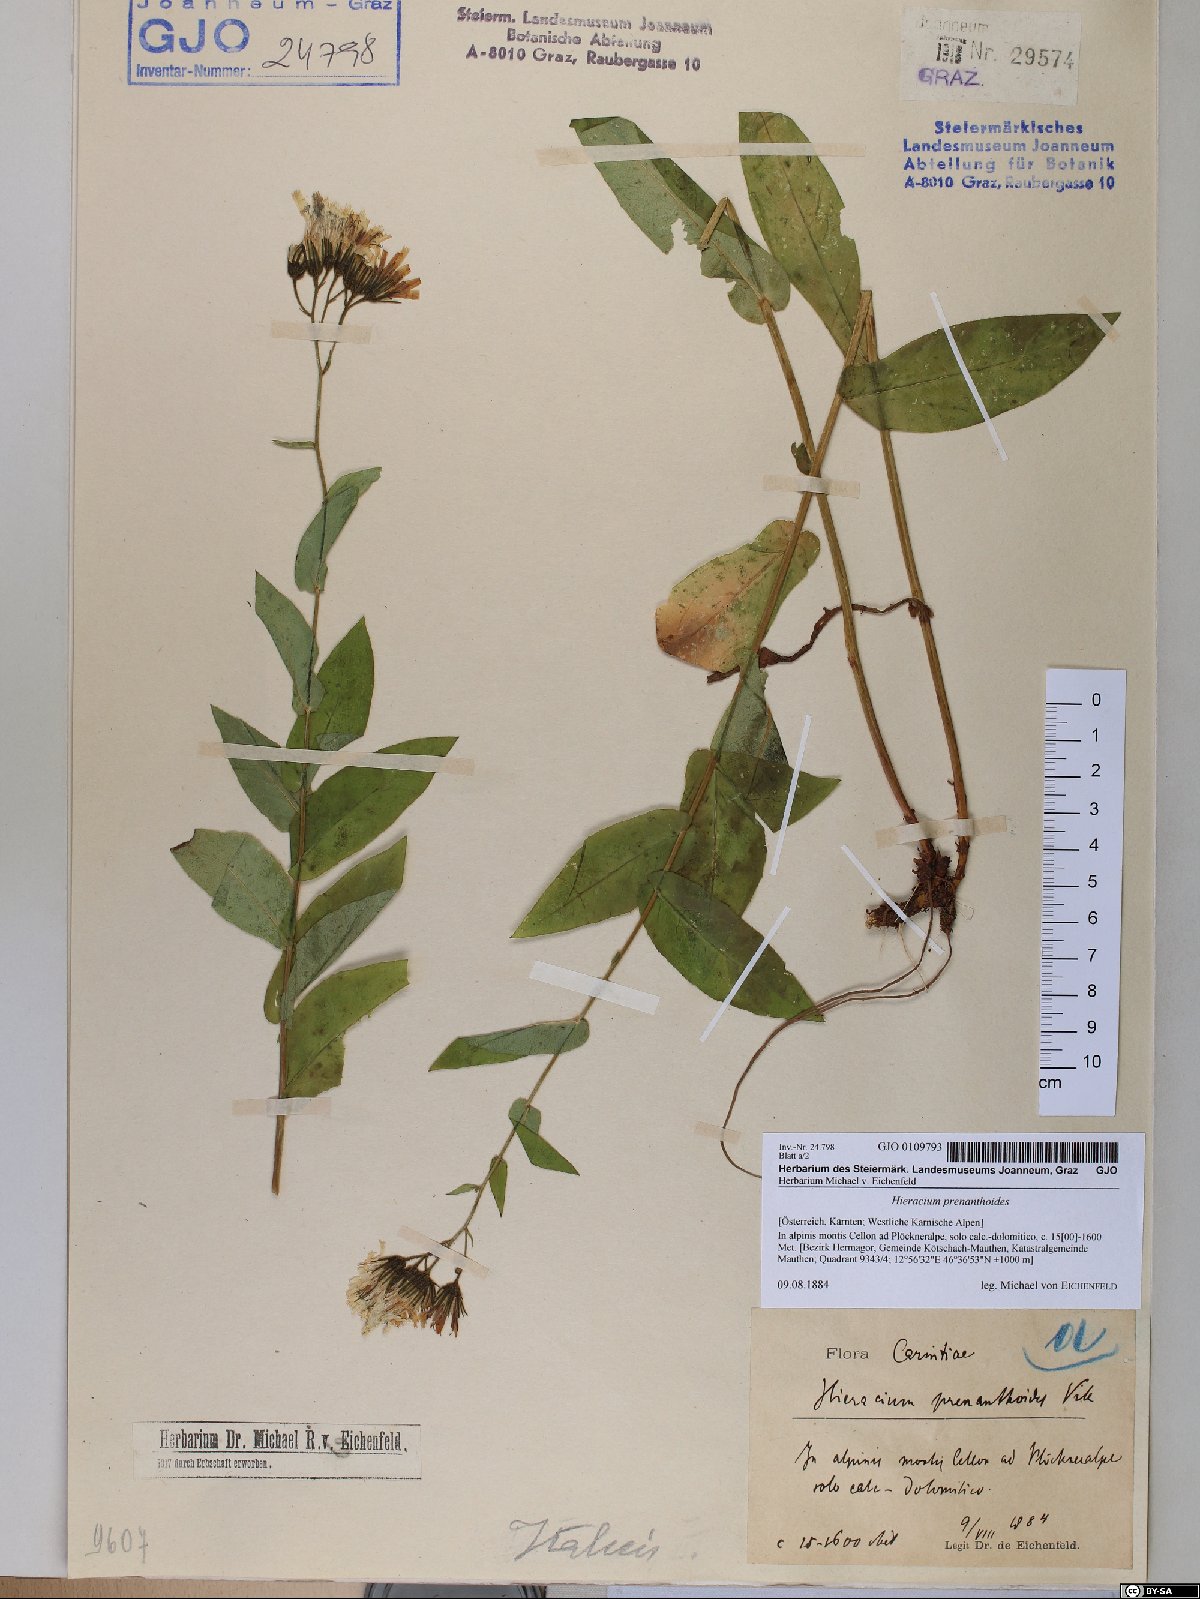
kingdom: Plantae
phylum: Tracheophyta
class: Magnoliopsida
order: Asterales
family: Asteraceae
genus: Hieracium
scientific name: Hieracium prenanthoides
